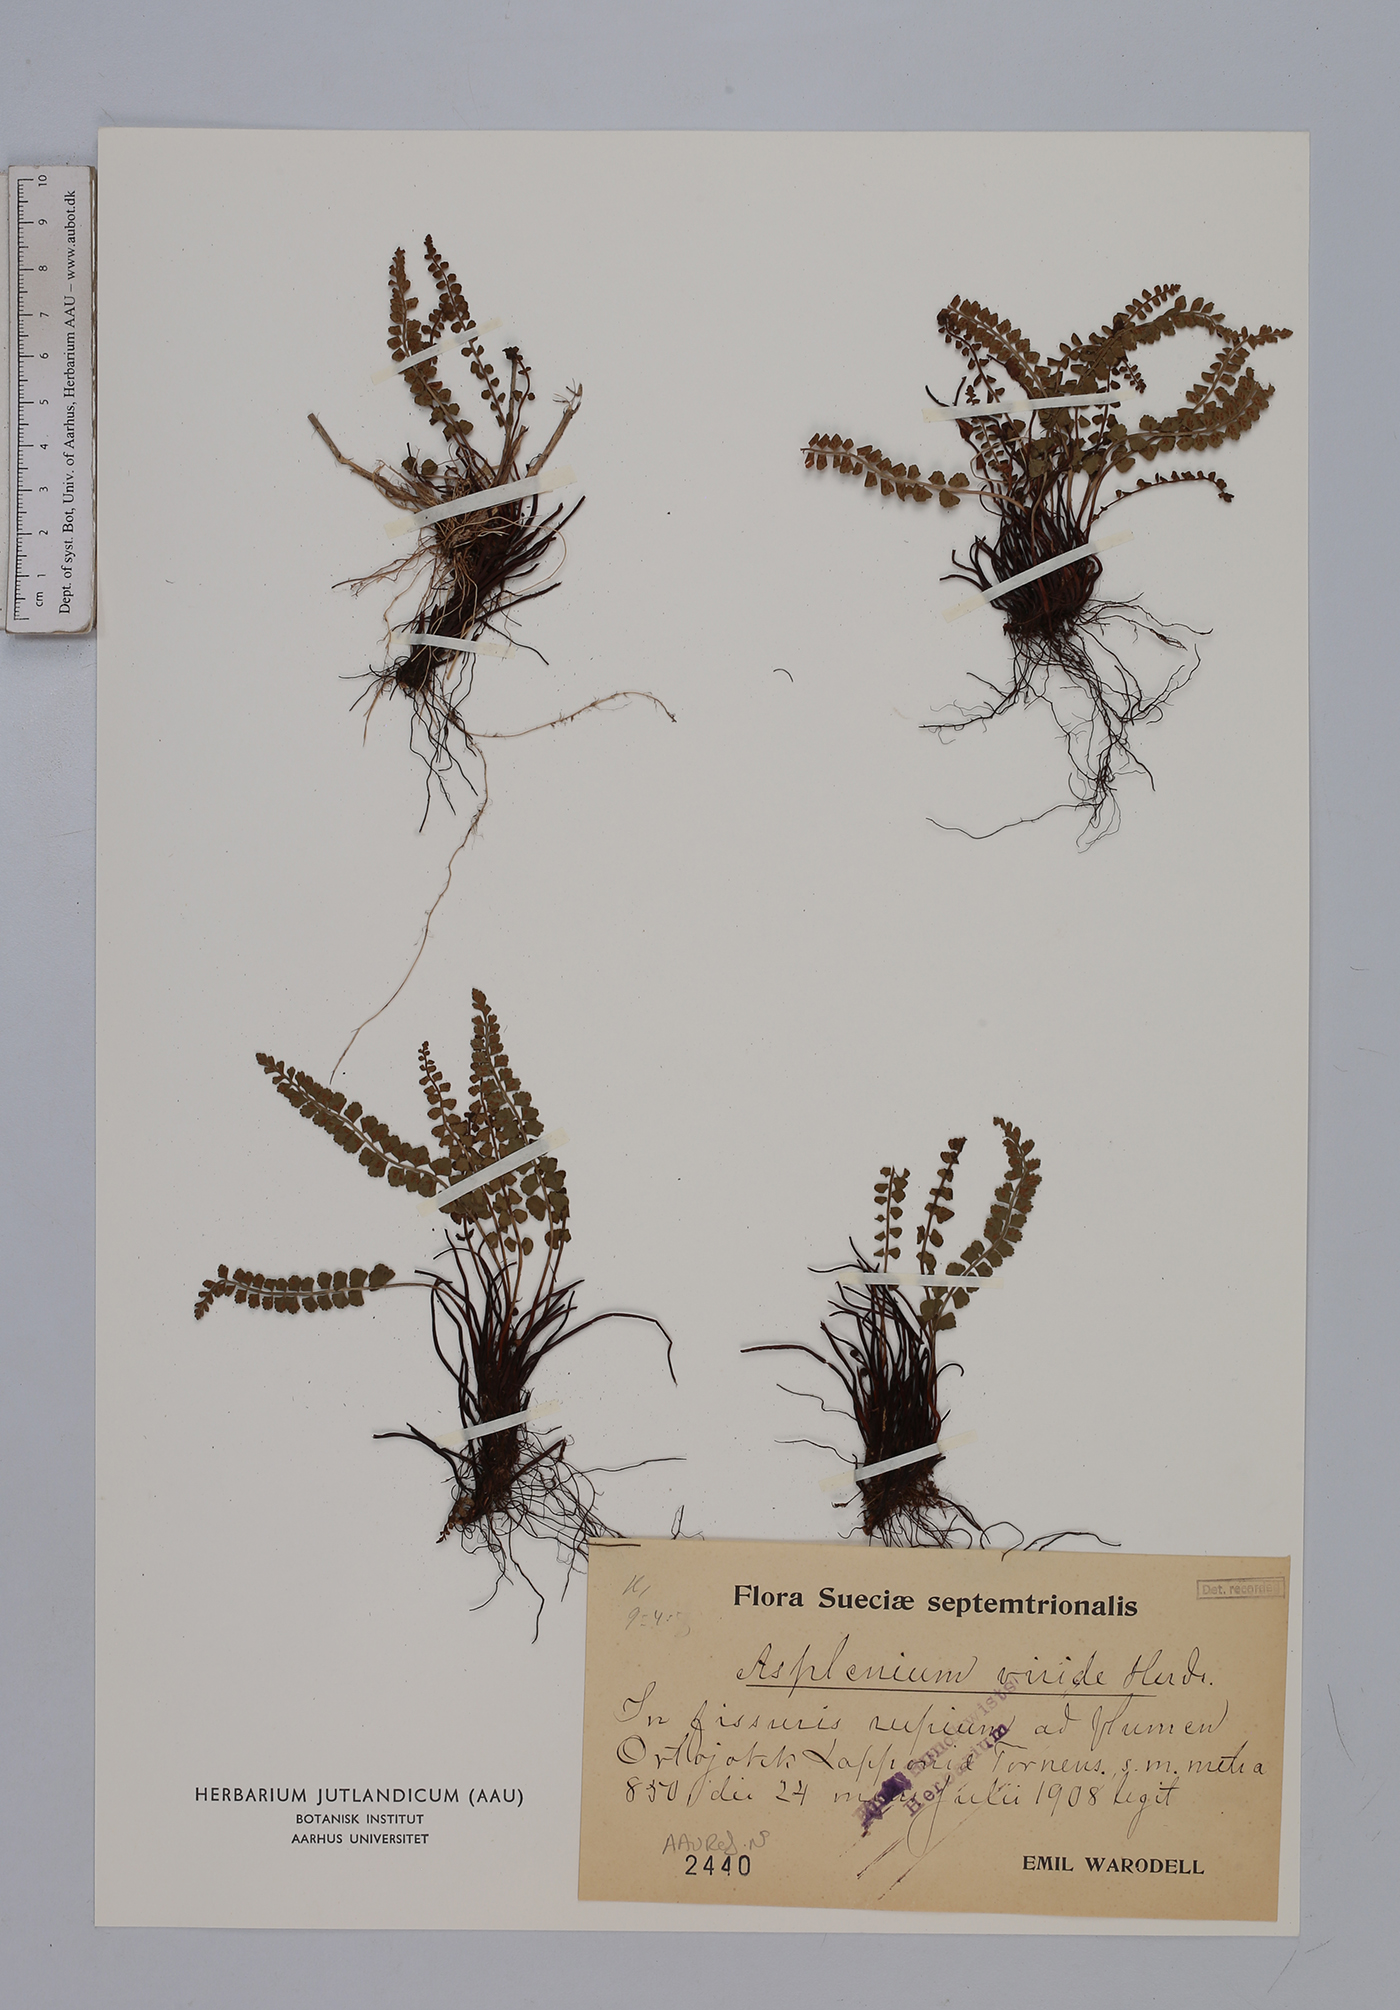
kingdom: Plantae
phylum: Tracheophyta
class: Polypodiopsida
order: Polypodiales
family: Aspleniaceae
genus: Asplenium
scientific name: Asplenium viride
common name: Green spleenwort
